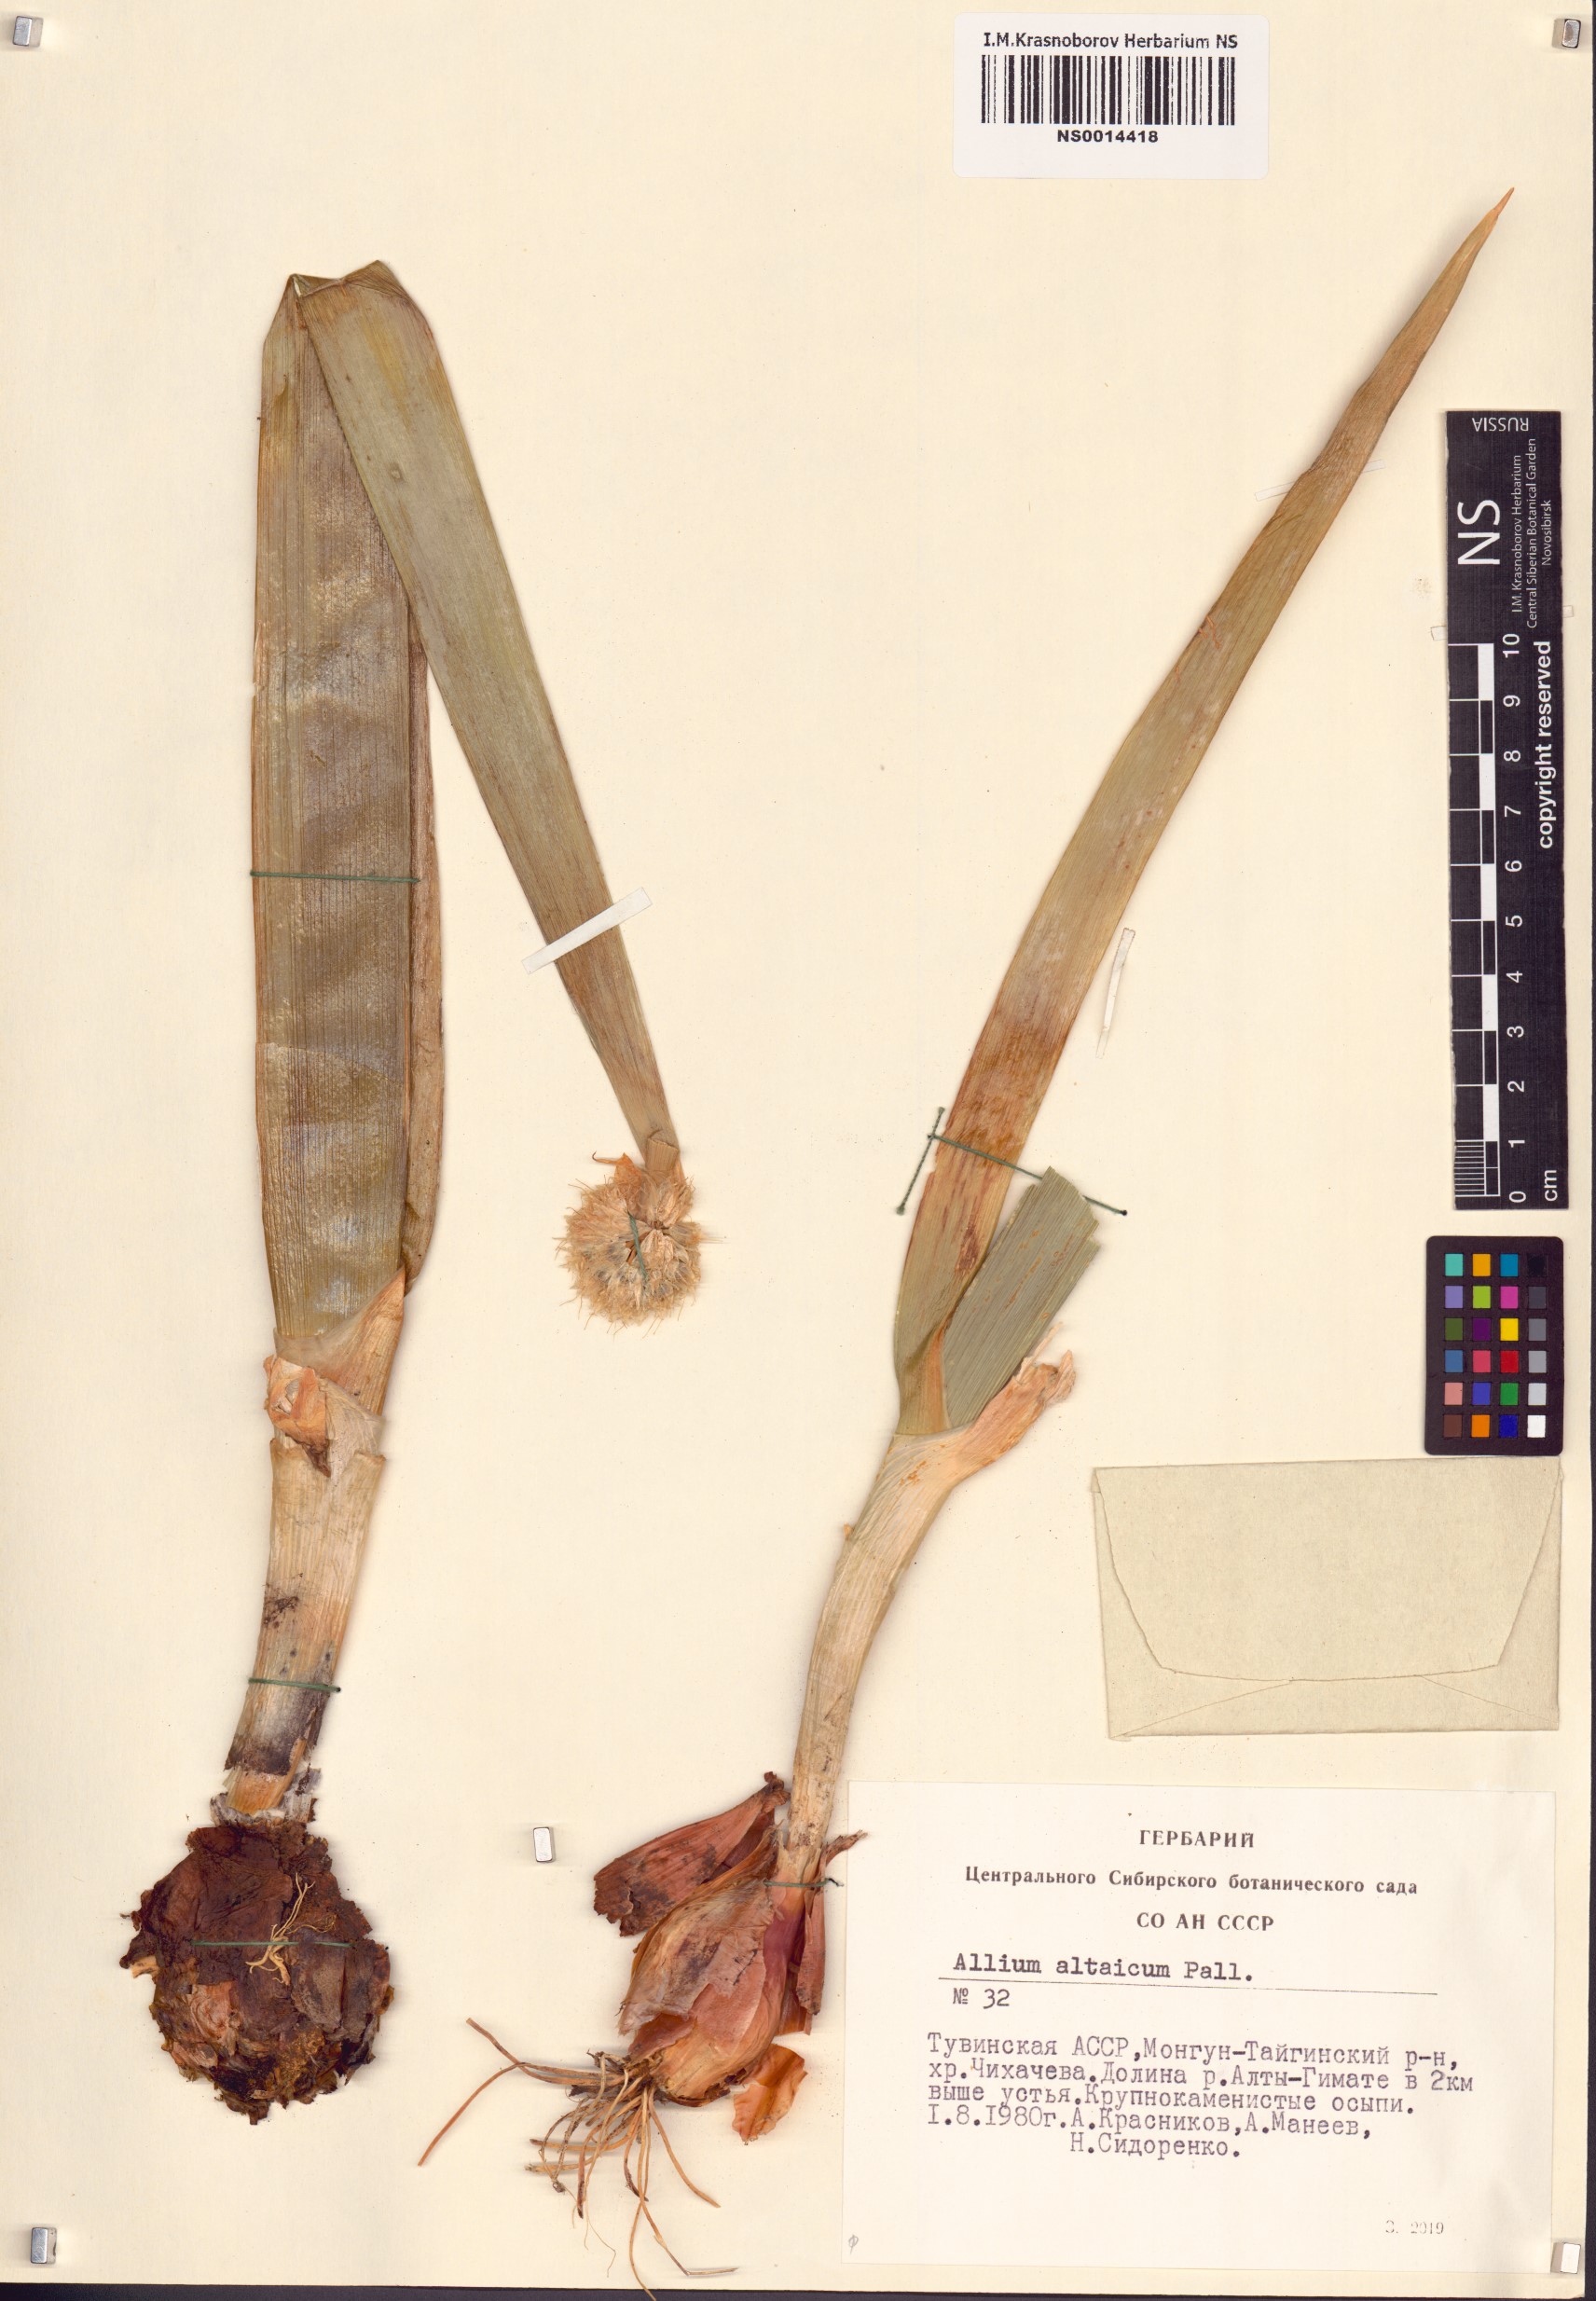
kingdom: Plantae
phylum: Tracheophyta
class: Liliopsida
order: Asparagales
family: Amaryllidaceae
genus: Allium
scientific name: Allium altaicum
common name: Altai onion
